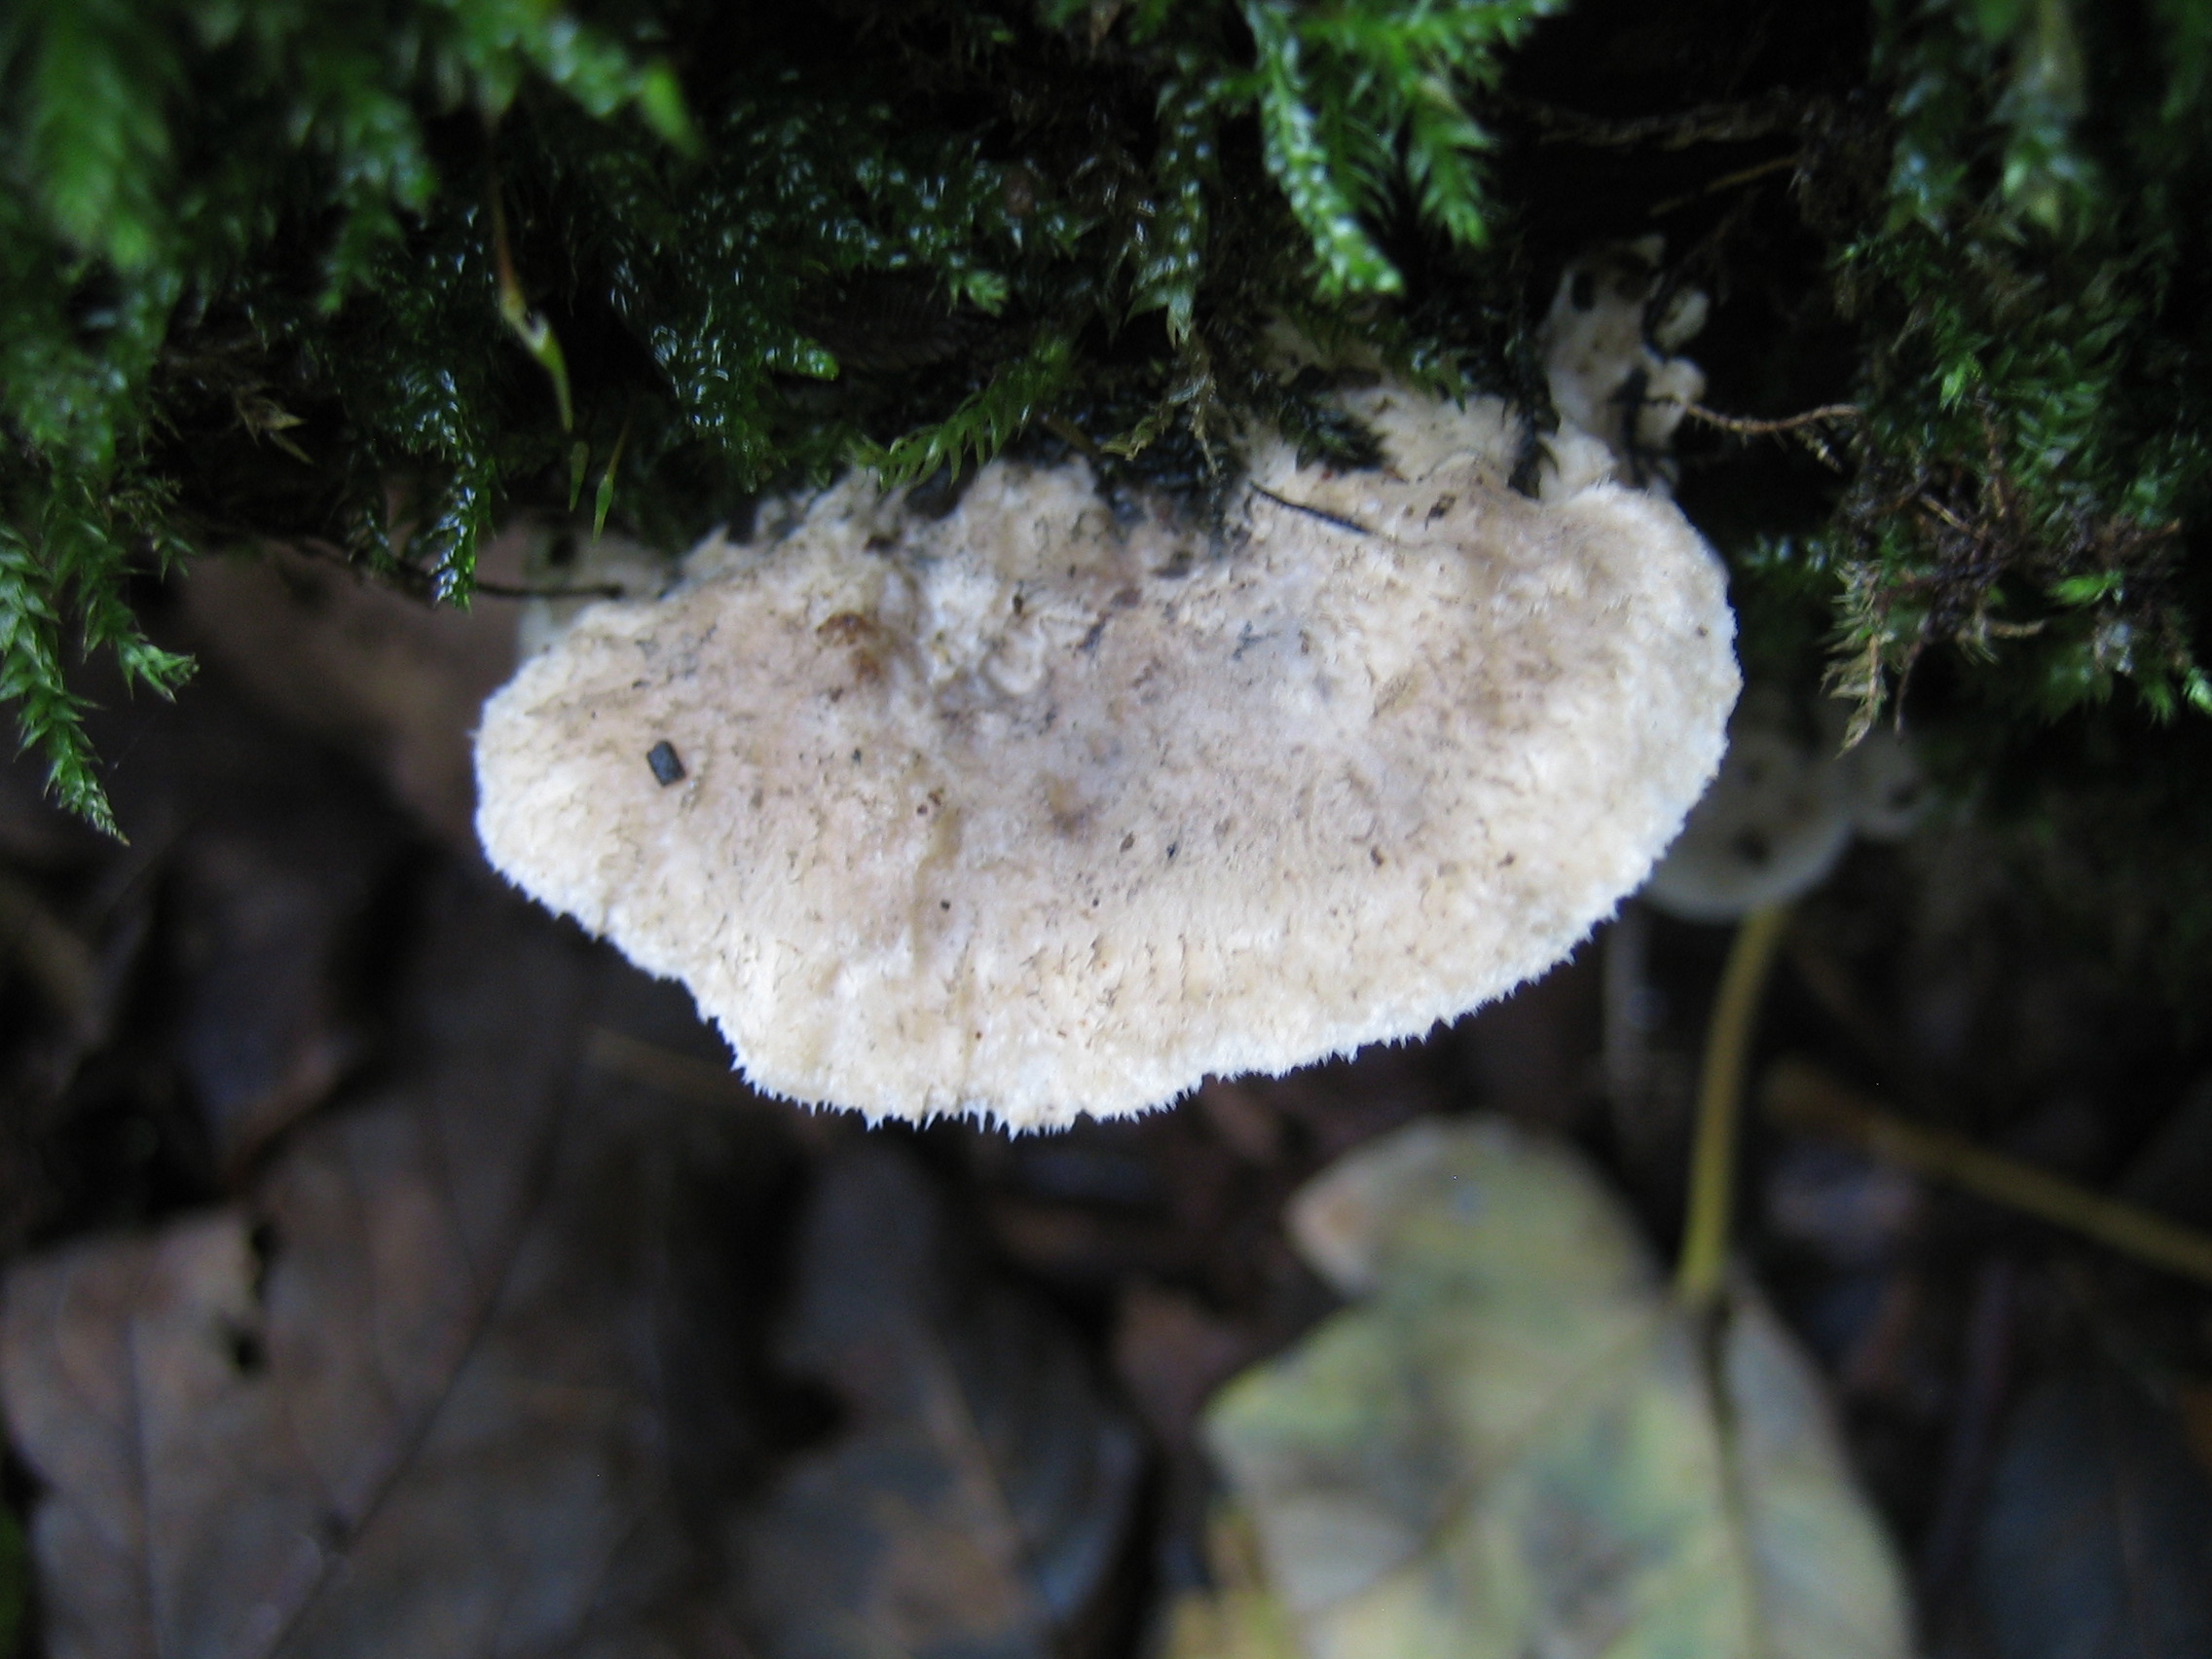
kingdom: Fungi
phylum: Basidiomycota
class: Agaricomycetes
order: Polyporales
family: Polyporaceae
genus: Cyanosporus
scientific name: Cyanosporus caesius
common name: blålig kødporesvamp
